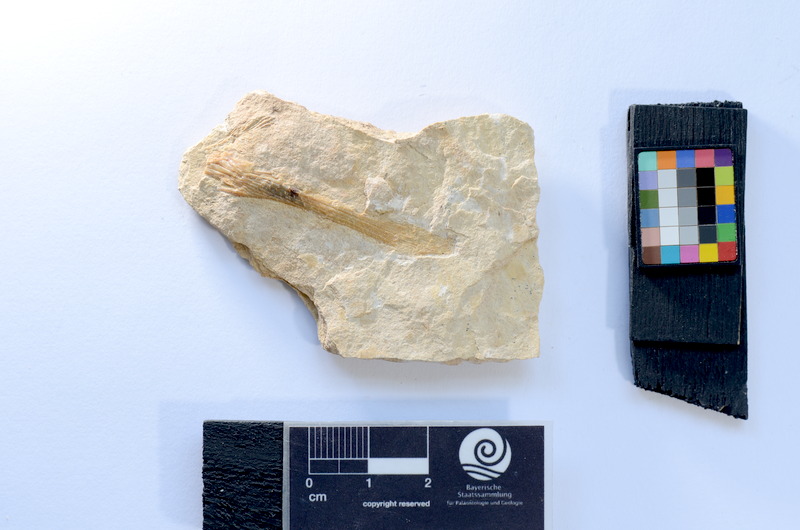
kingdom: Animalia
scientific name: Animalia
